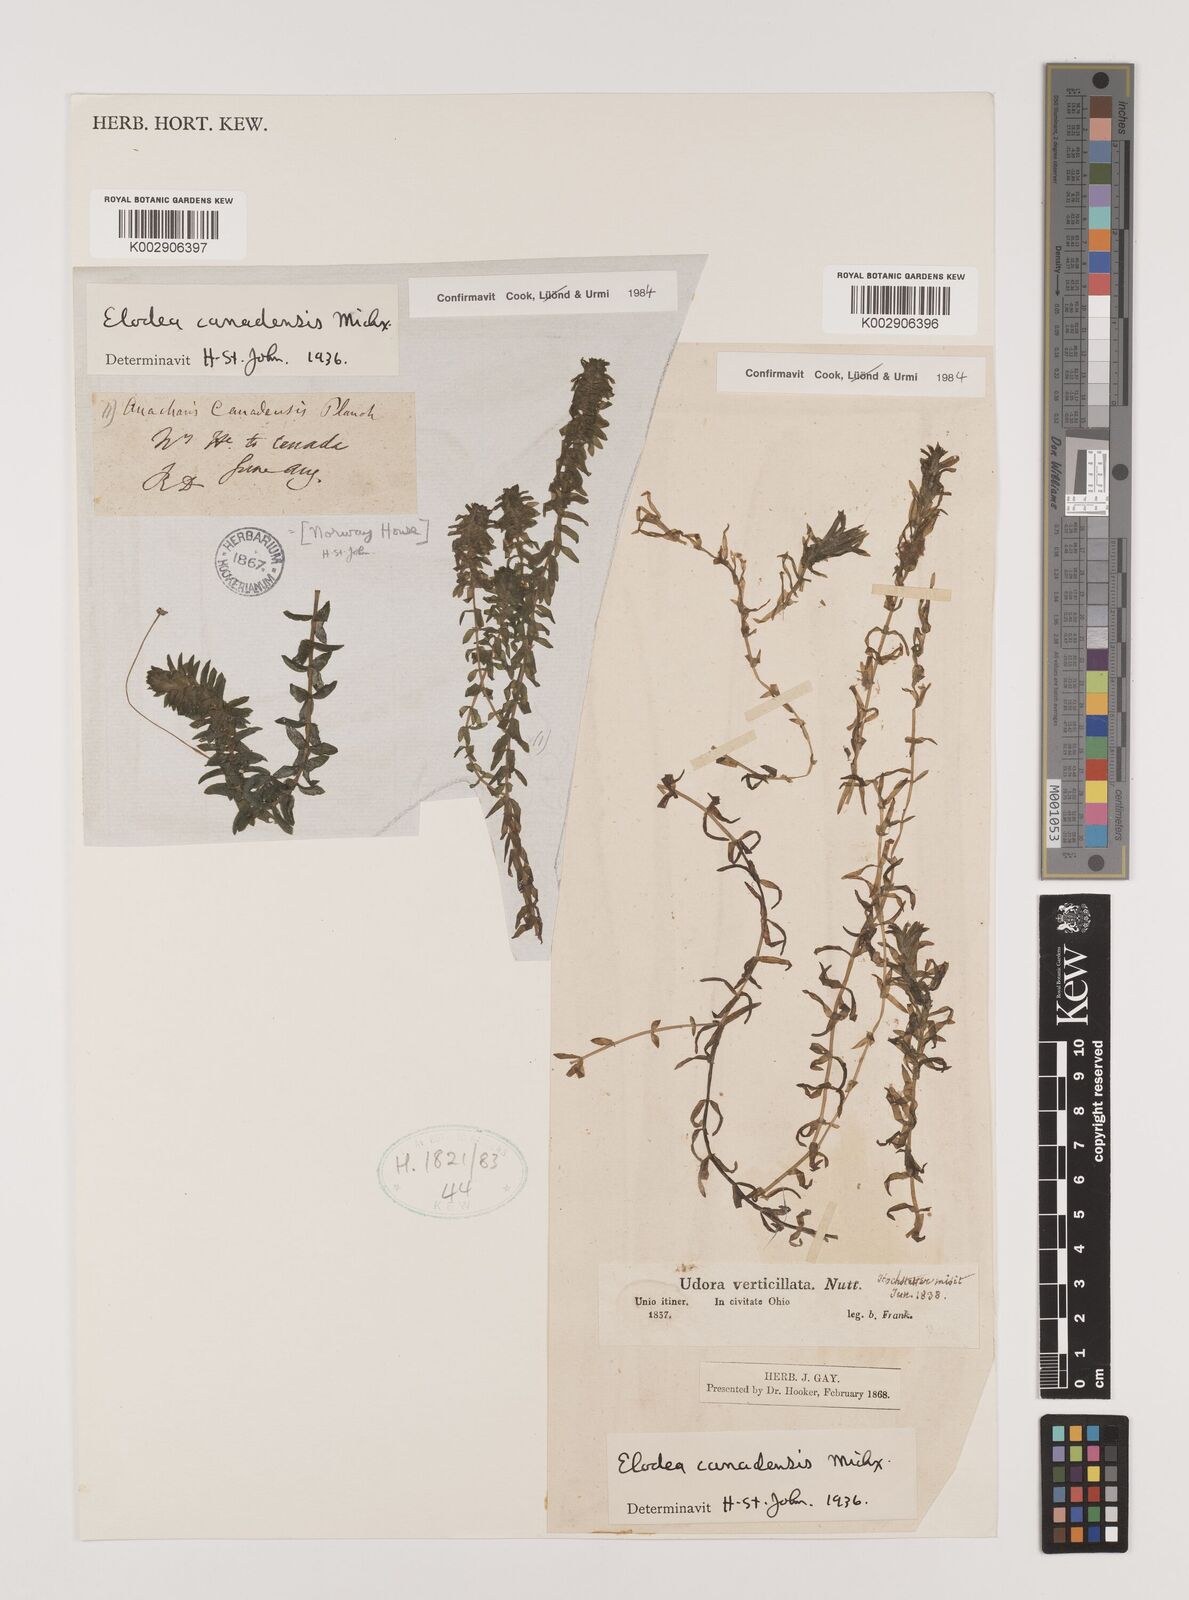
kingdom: Plantae
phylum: Tracheophyta
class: Liliopsida
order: Alismatales
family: Hydrocharitaceae
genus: Elodea
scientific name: Elodea canadensis
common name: Canadian waterweed
